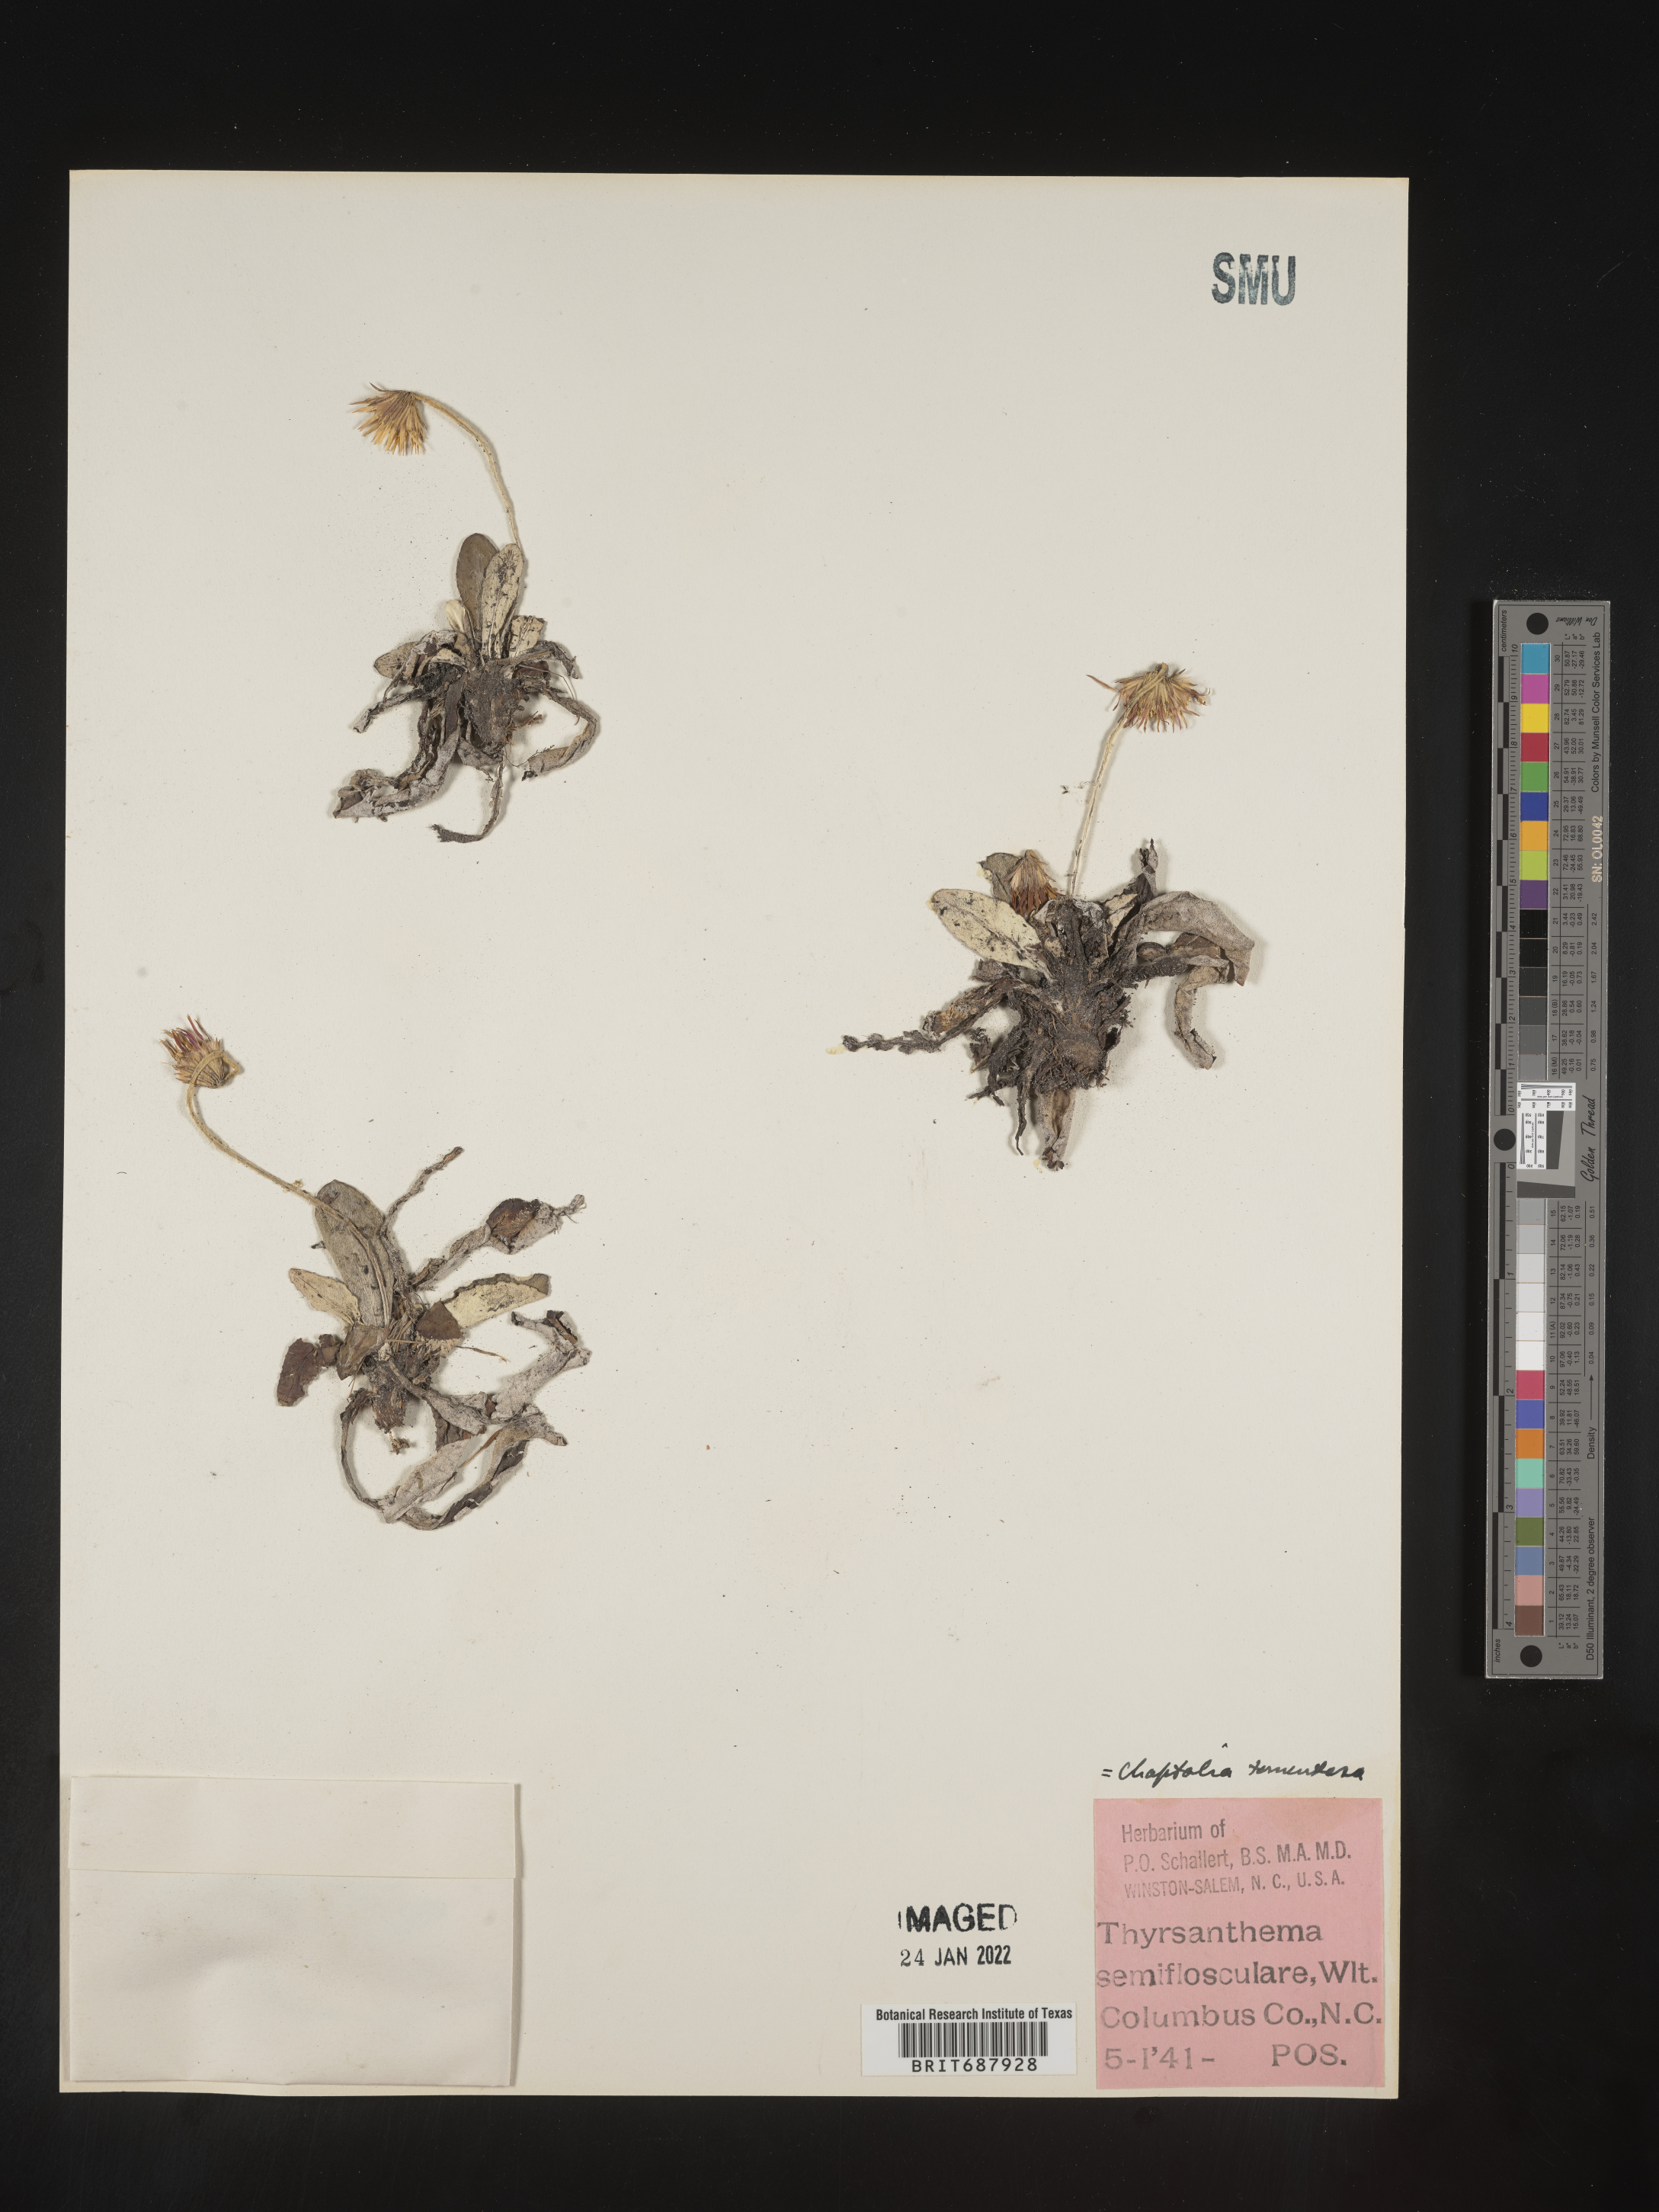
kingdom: Plantae
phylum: Tracheophyta
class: Magnoliopsida
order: Asterales
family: Asteraceae
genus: Chaptalia
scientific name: Chaptalia tomentosa
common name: Woolly sunbonnet
